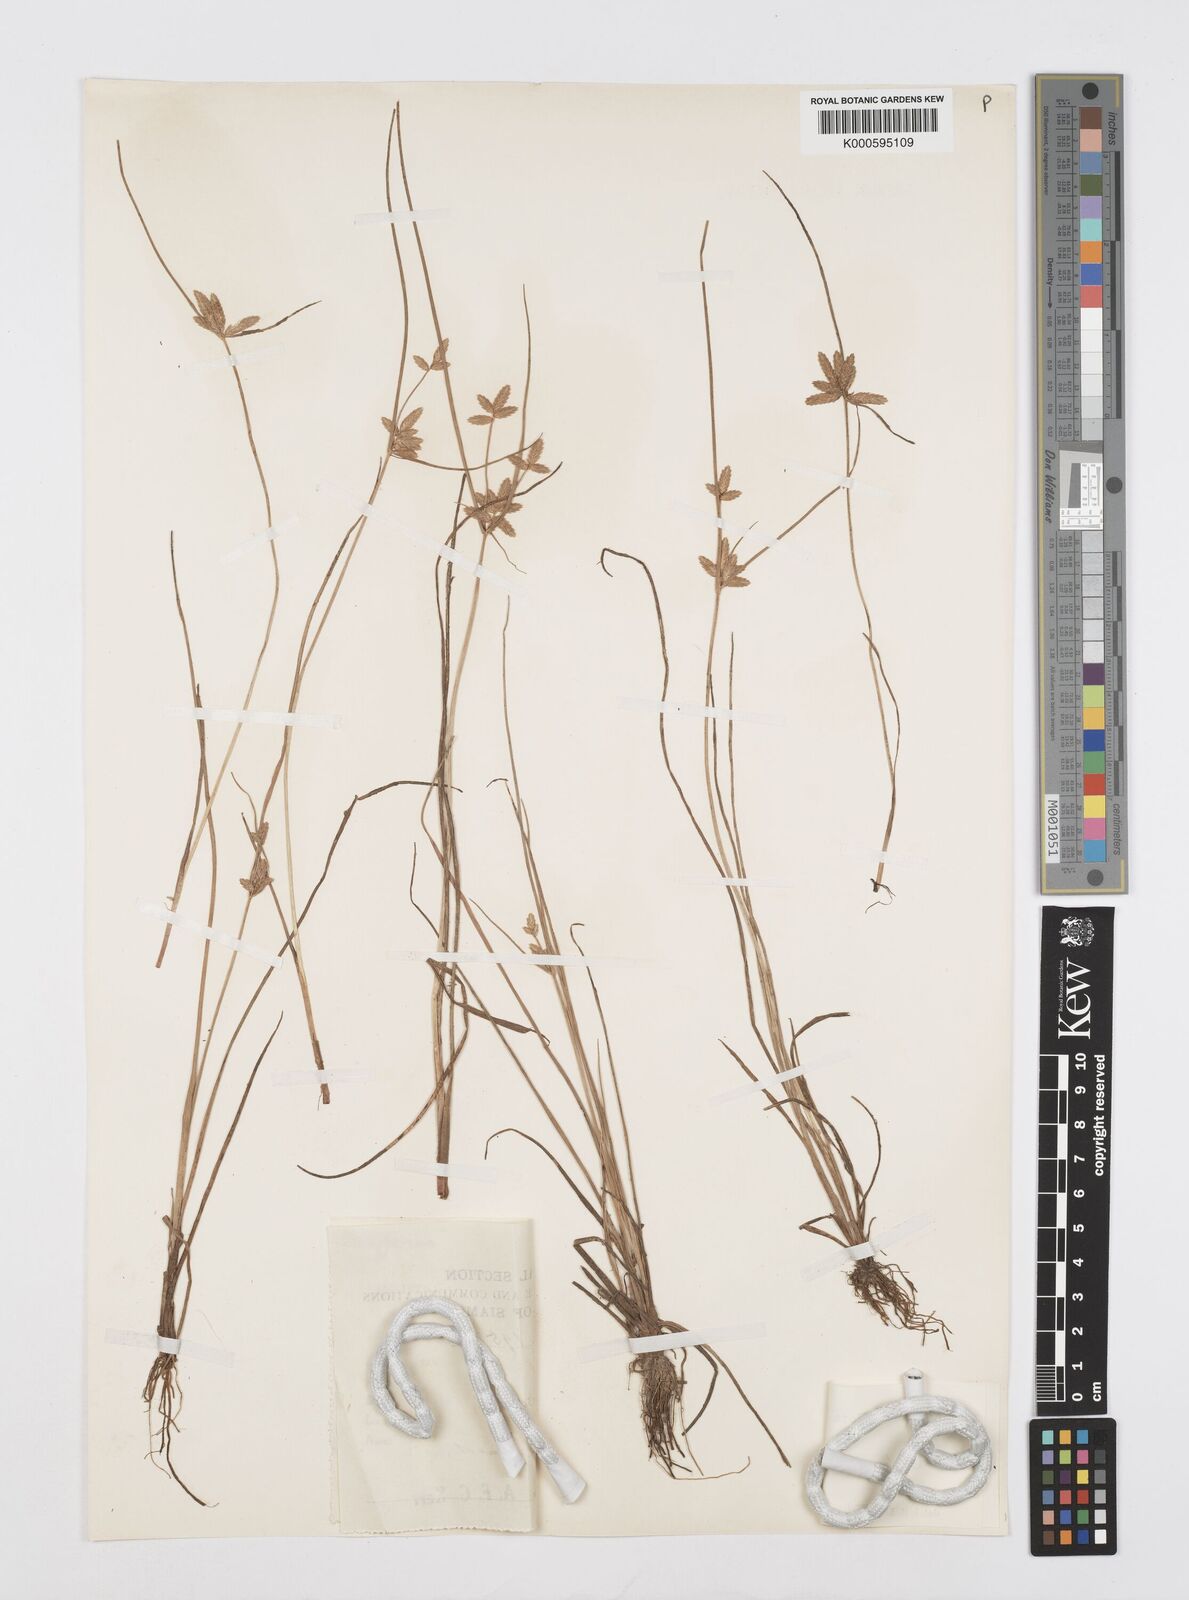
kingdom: Plantae
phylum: Tracheophyta
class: Liliopsida
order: Poales
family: Cyperaceae
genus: Cyperus
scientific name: Cyperus diaphanus
